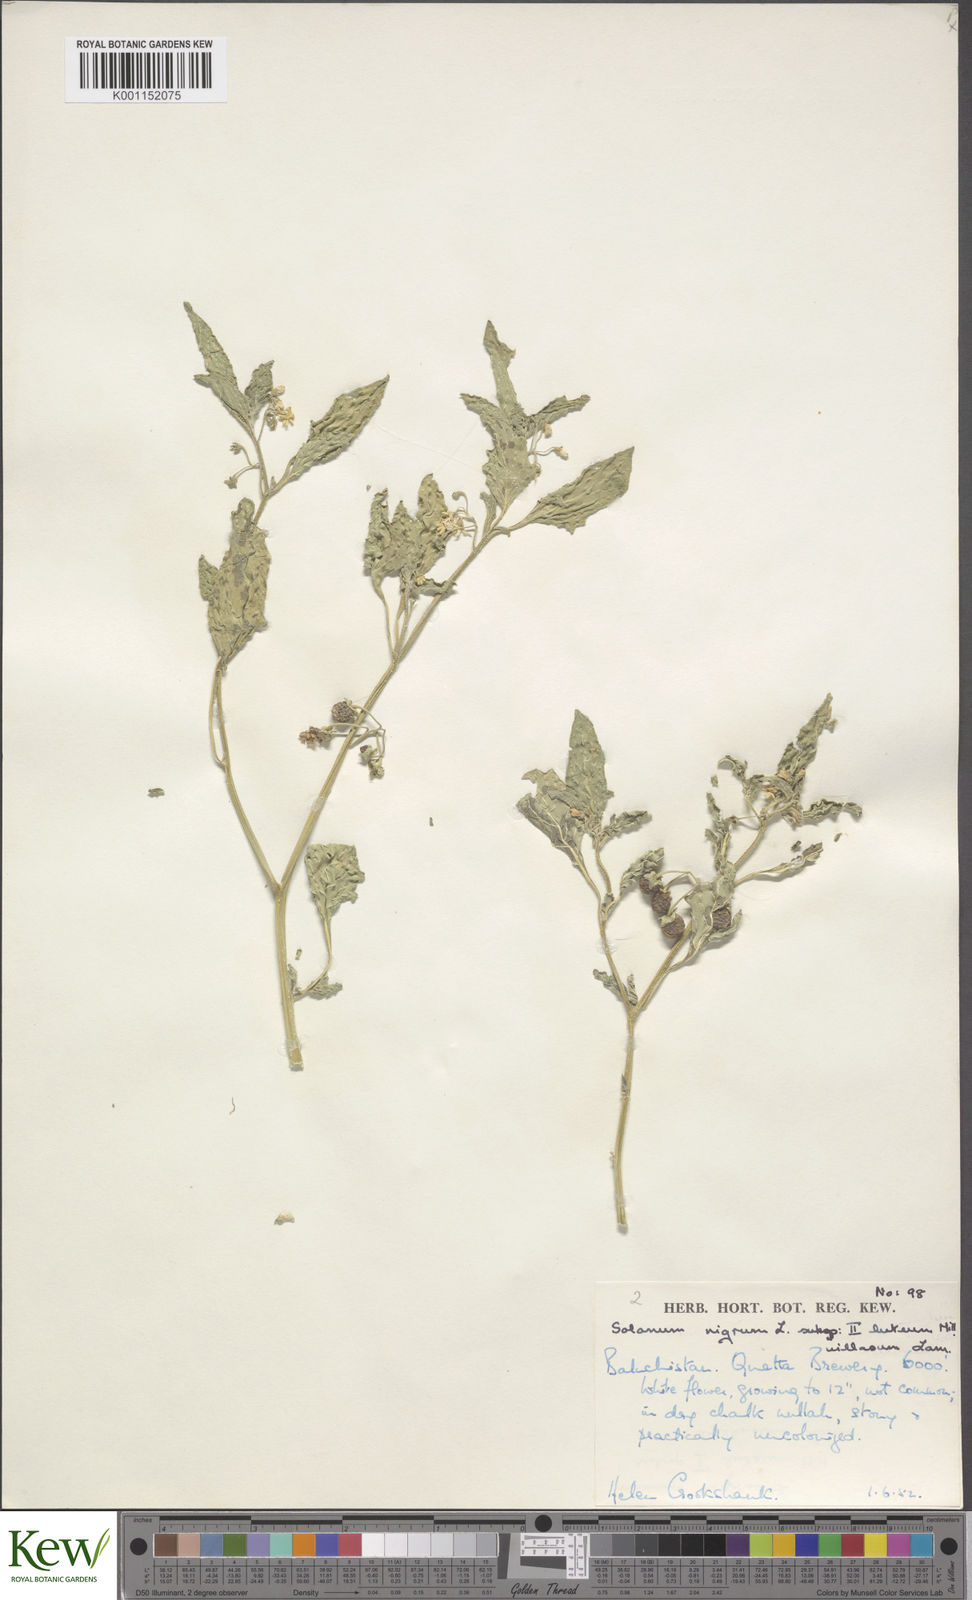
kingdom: Plantae
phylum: Tracheophyta
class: Magnoliopsida
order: Solanales
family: Solanaceae
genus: Solanum
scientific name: Solanum villosum
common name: Red nightshade
